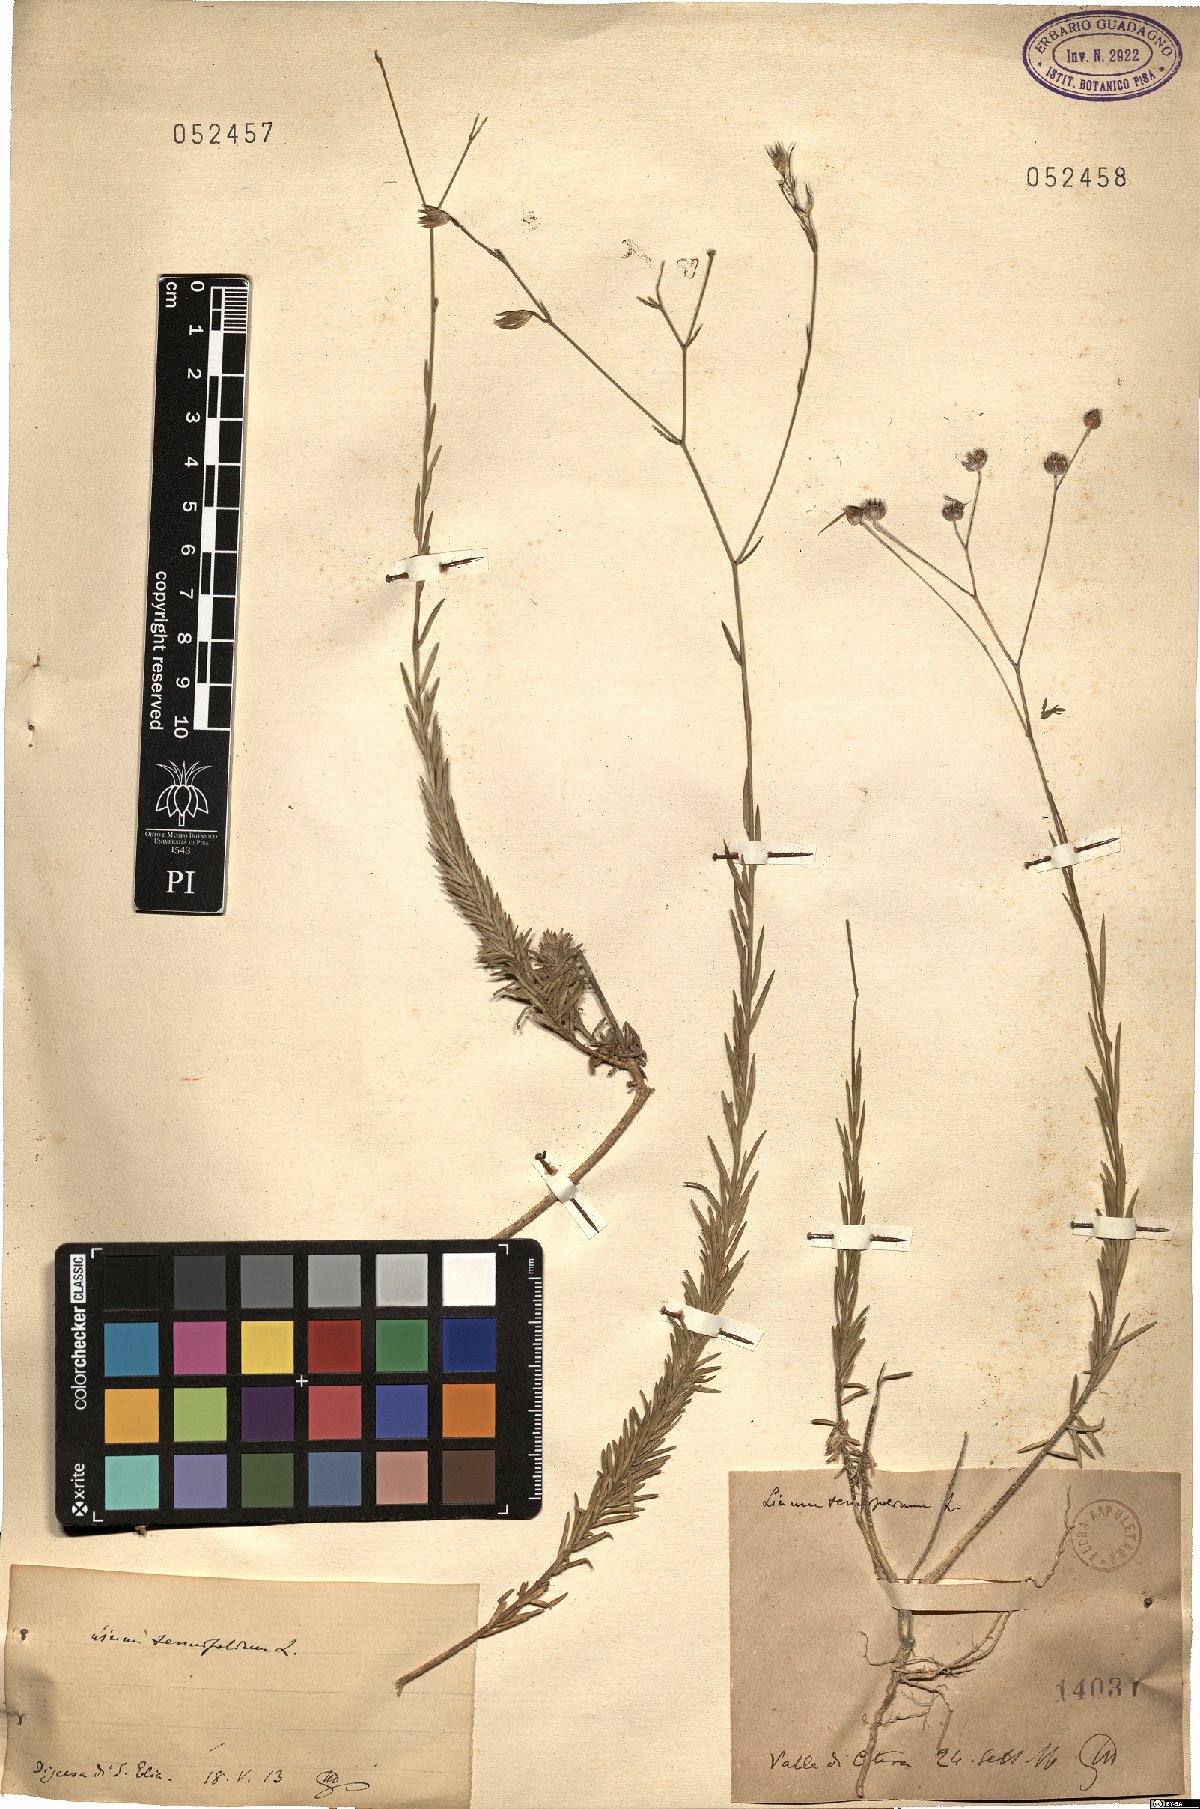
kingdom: Plantae
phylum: Tracheophyta
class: Magnoliopsida
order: Malpighiales
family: Linaceae
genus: Linum
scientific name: Linum tenuifolium
